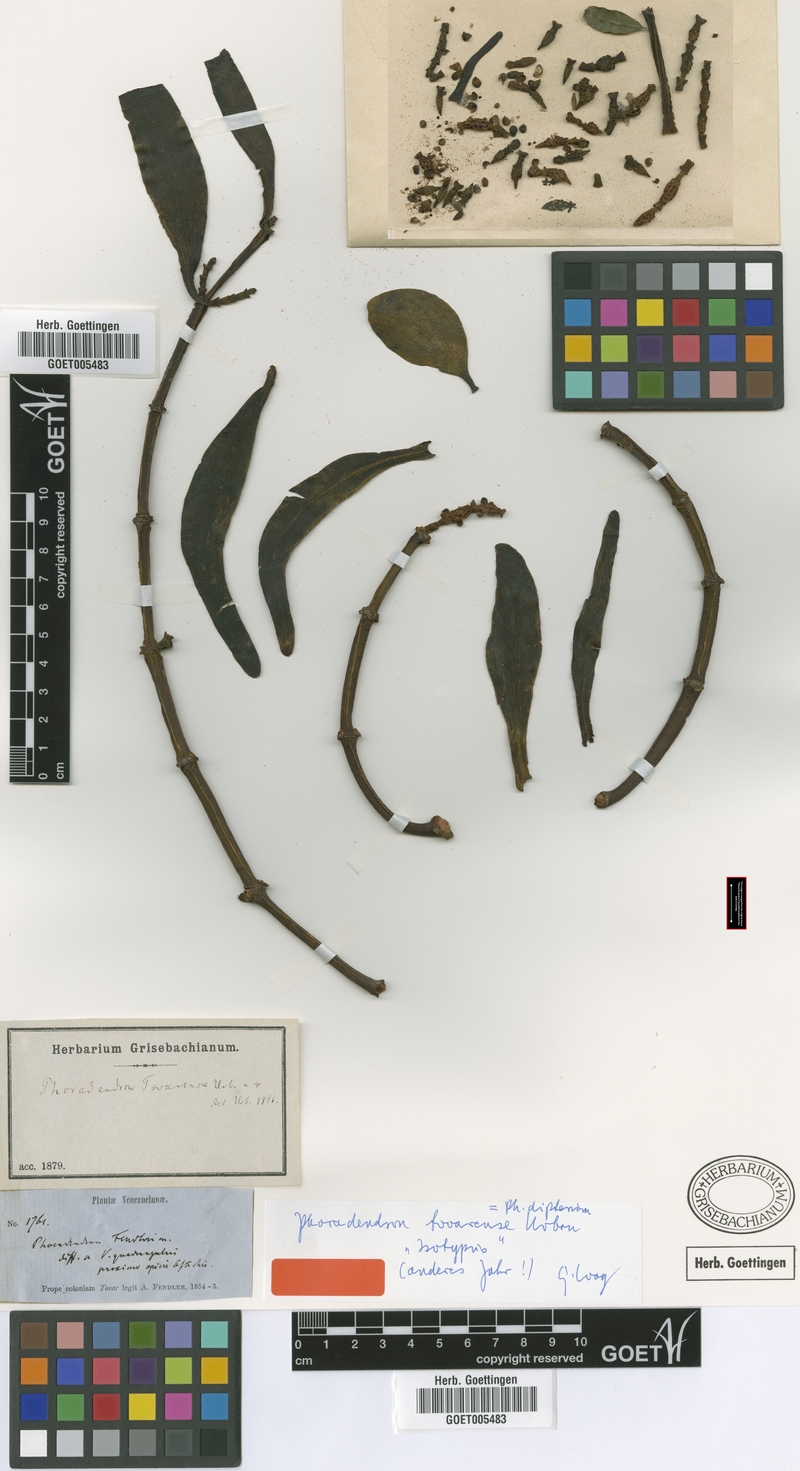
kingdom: Plantae
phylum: Tracheophyta
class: Magnoliopsida
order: Santalales
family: Viscaceae
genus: Phoradendron
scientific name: Phoradendron dipterum
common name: Fourpart mistletoe
